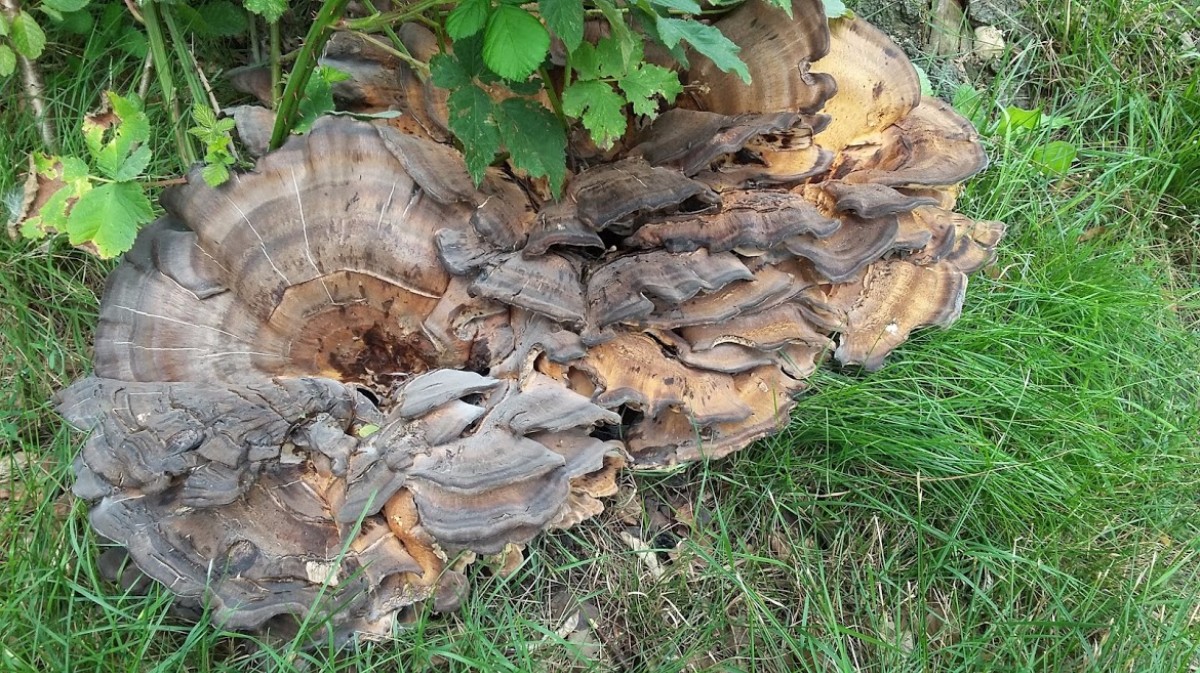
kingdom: Fungi
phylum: Basidiomycota
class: Agaricomycetes
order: Polyporales
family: Meripilaceae
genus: Meripilus
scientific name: Meripilus giganteus
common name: kæmpeporesvamp
